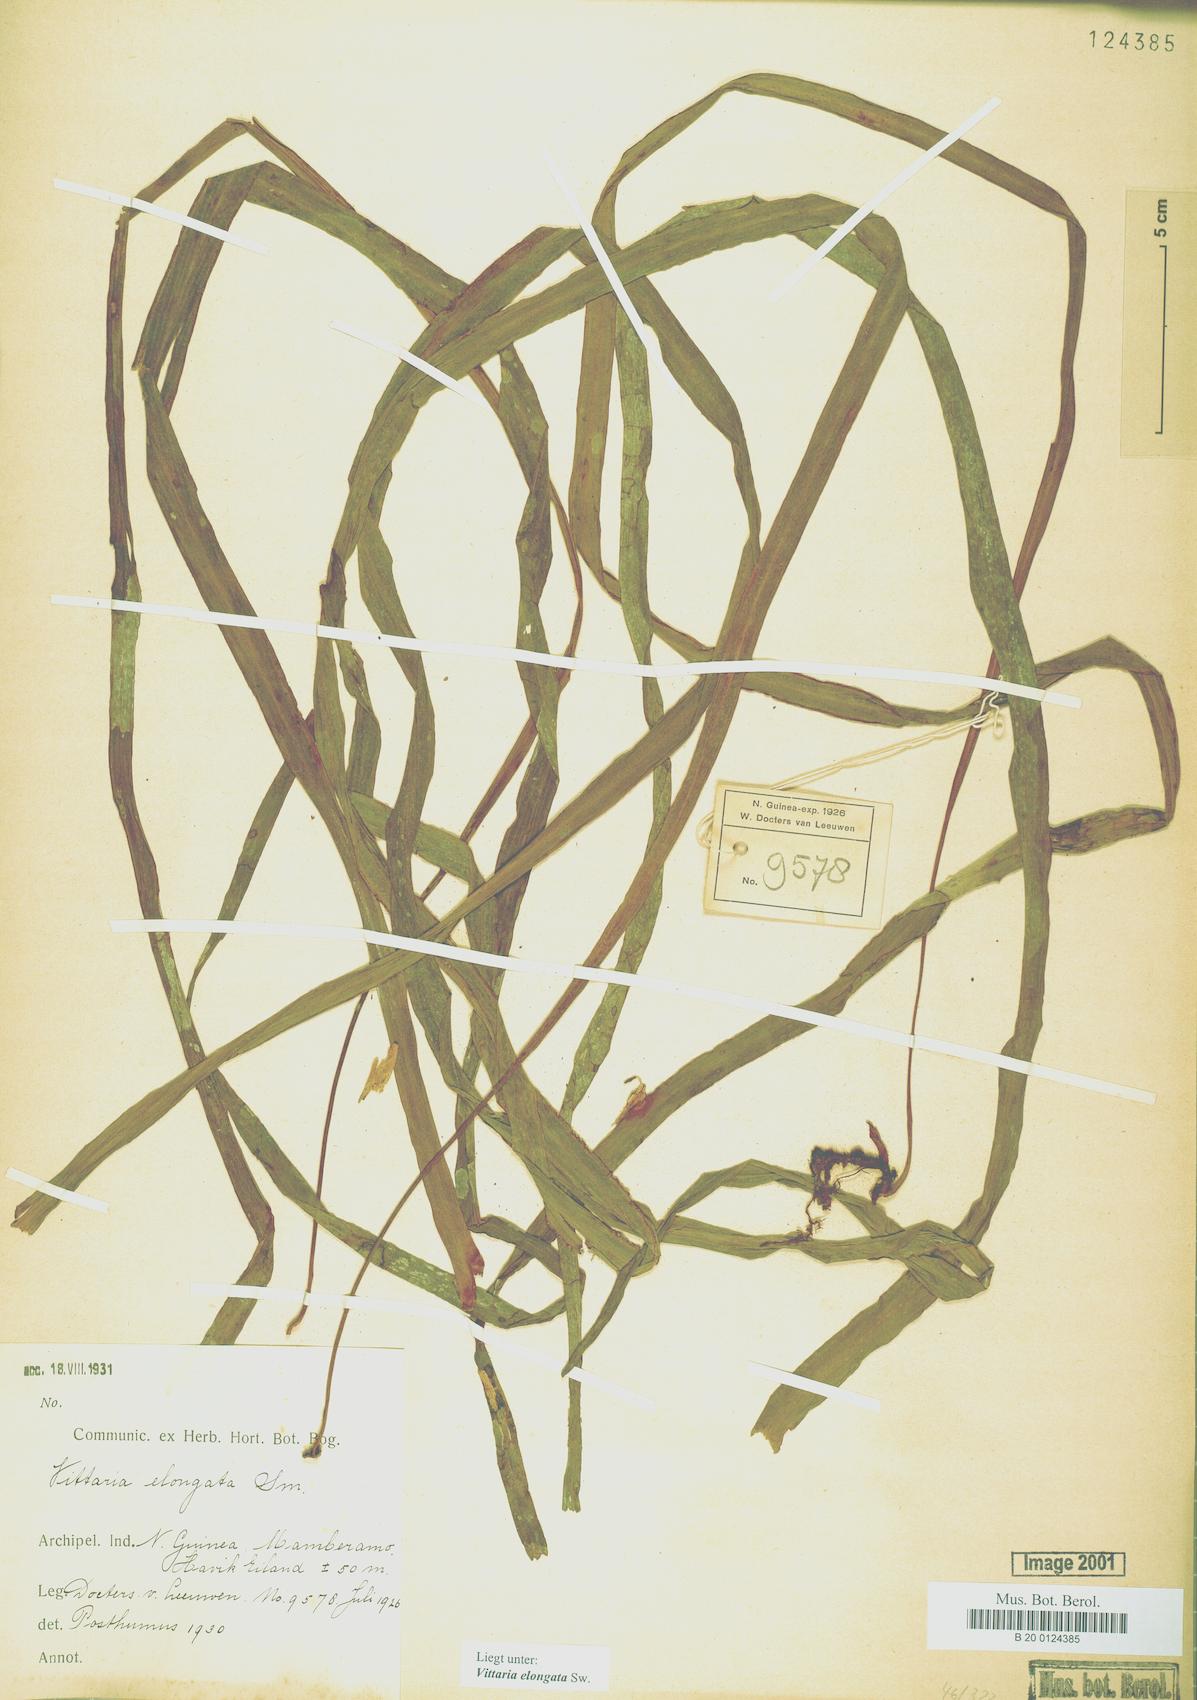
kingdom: Plantae
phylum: Tracheophyta
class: Polypodiopsida
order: Polypodiales
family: Pteridaceae
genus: Haplopteris
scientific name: Haplopteris elongata
